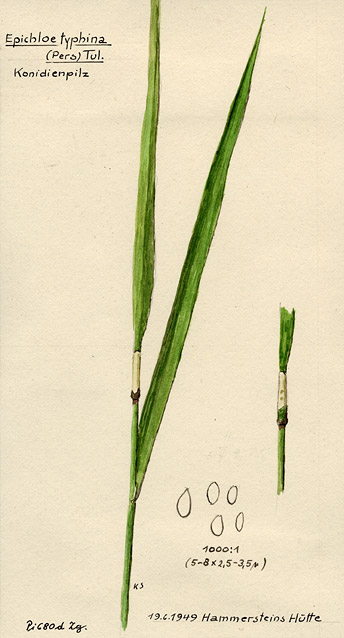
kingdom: Fungi
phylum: Ascomycota
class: Sordariomycetes
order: Hypocreales
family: Clavicipitaceae
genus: Epichloe
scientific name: Epichloe typhina
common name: Choke
